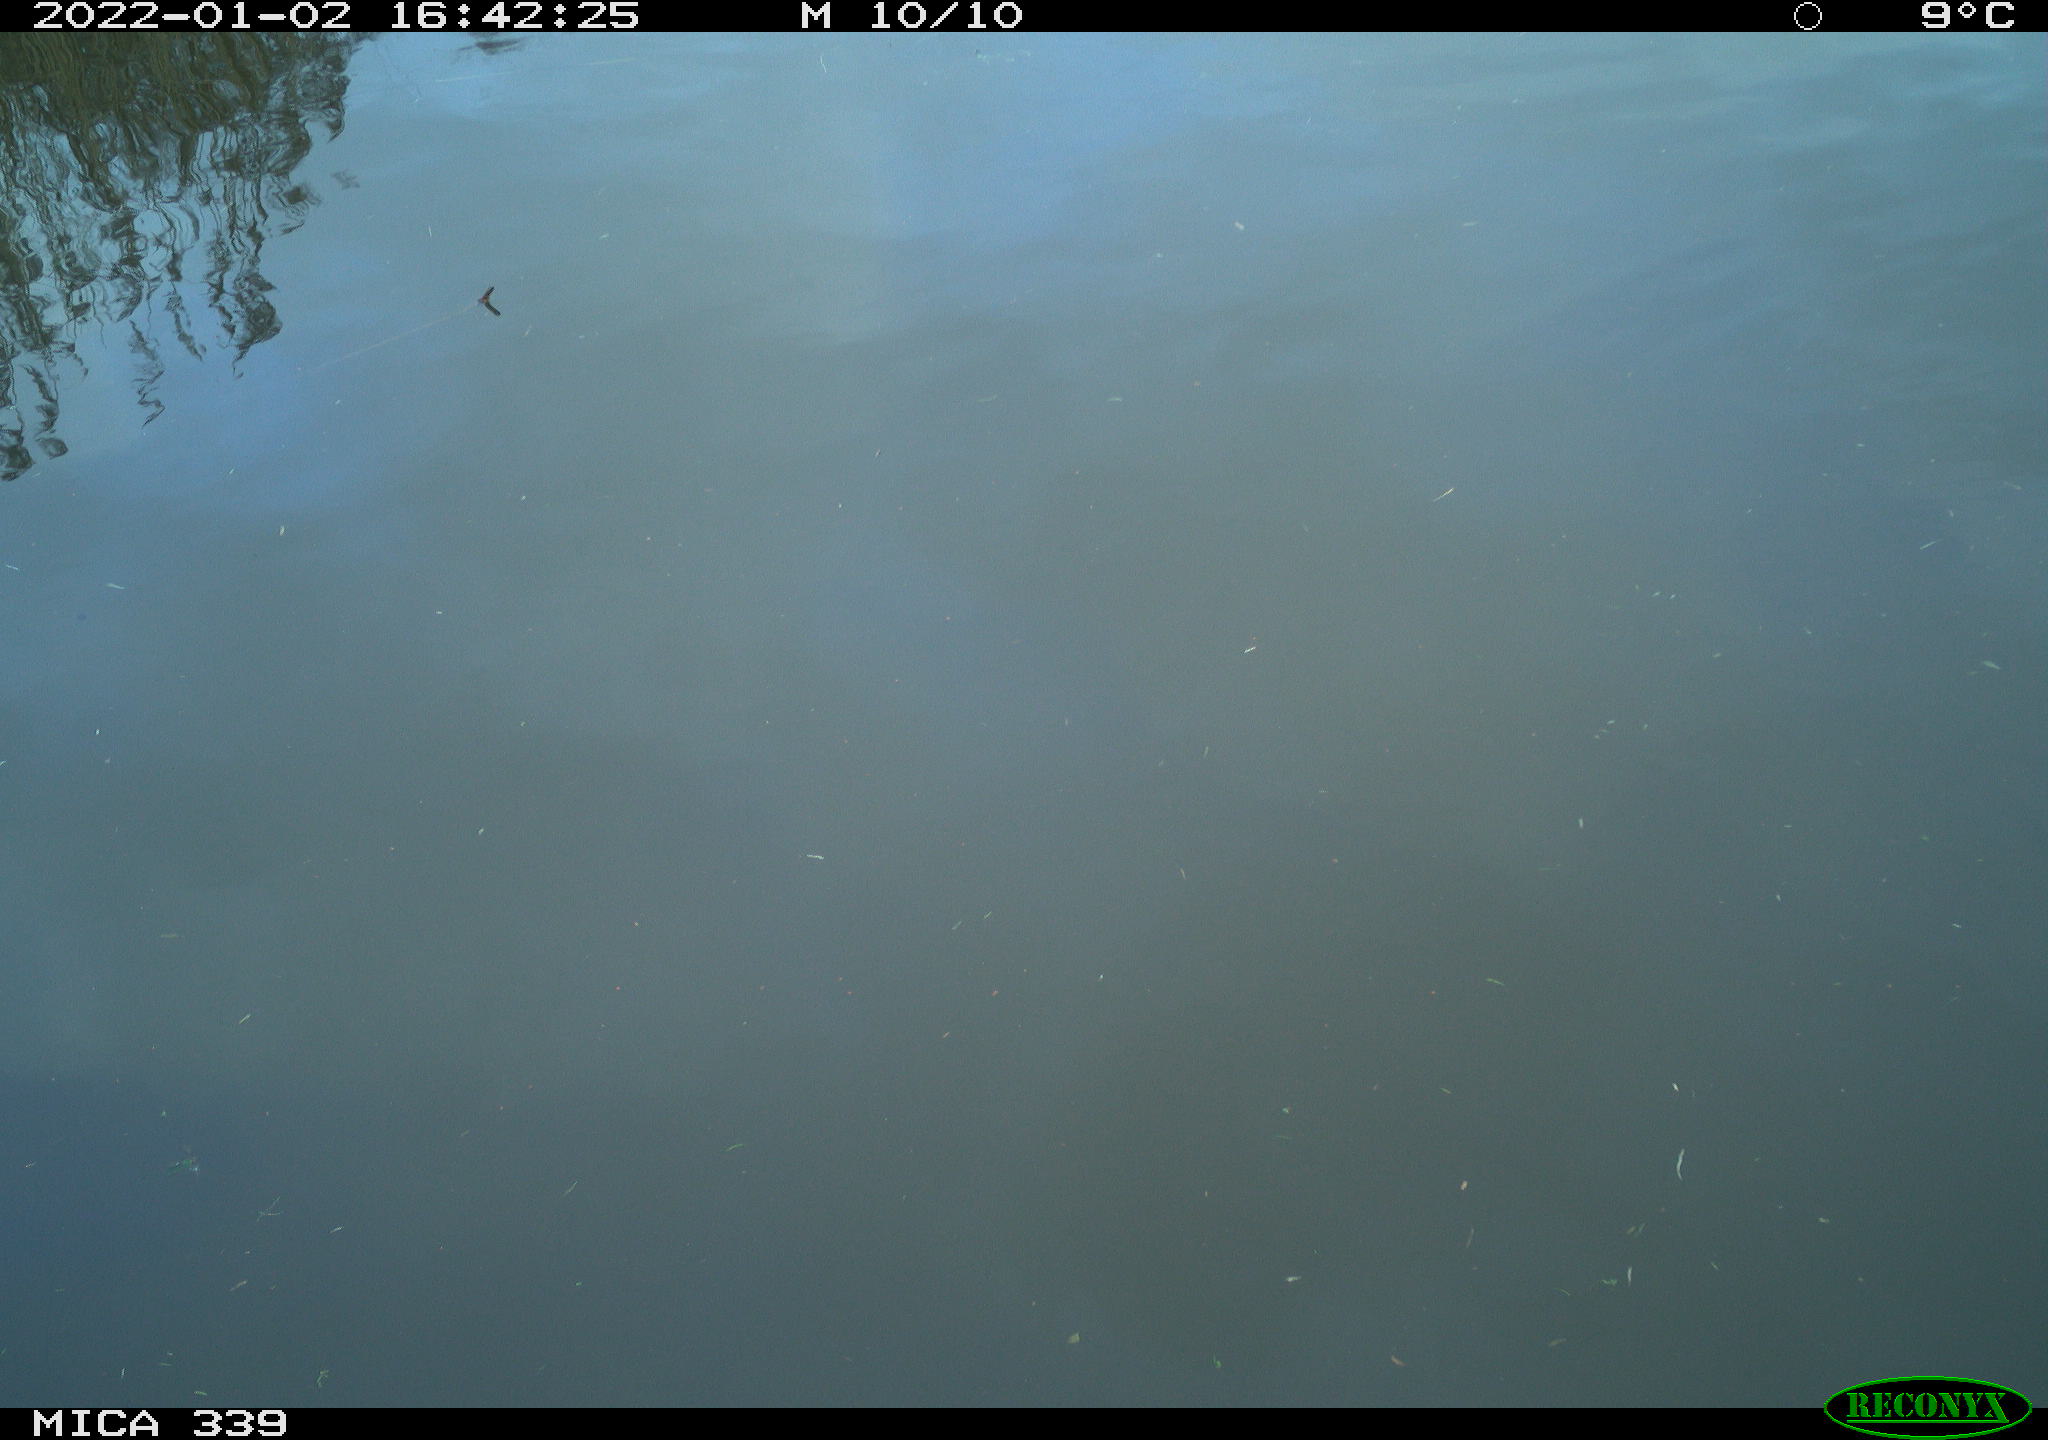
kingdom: Animalia
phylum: Chordata
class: Aves
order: Gruiformes
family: Rallidae
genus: Gallinula
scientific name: Gallinula chloropus
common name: Common moorhen
